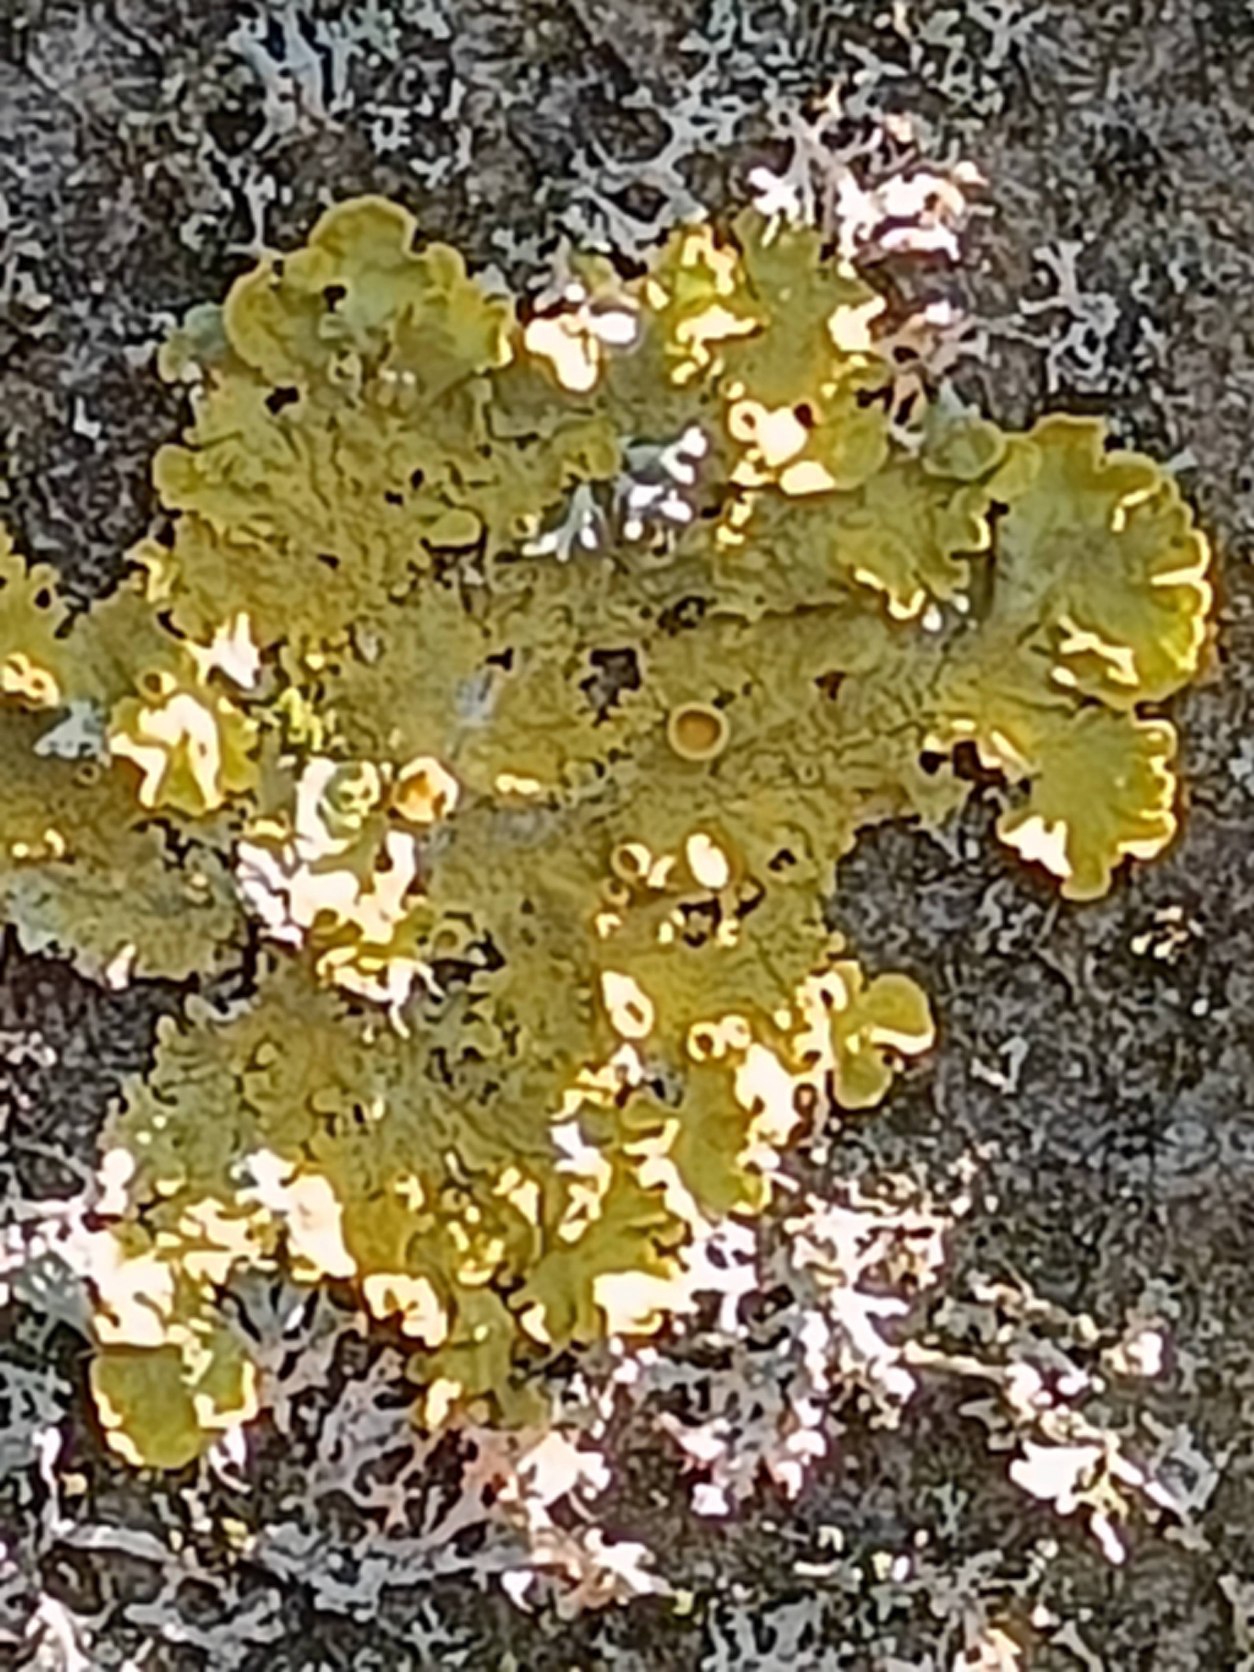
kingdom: Fungi
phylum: Ascomycota
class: Lecanoromycetes
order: Teloschistales
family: Teloschistaceae
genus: Xanthoria
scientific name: Xanthoria parietina
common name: Almindelig væggelav
